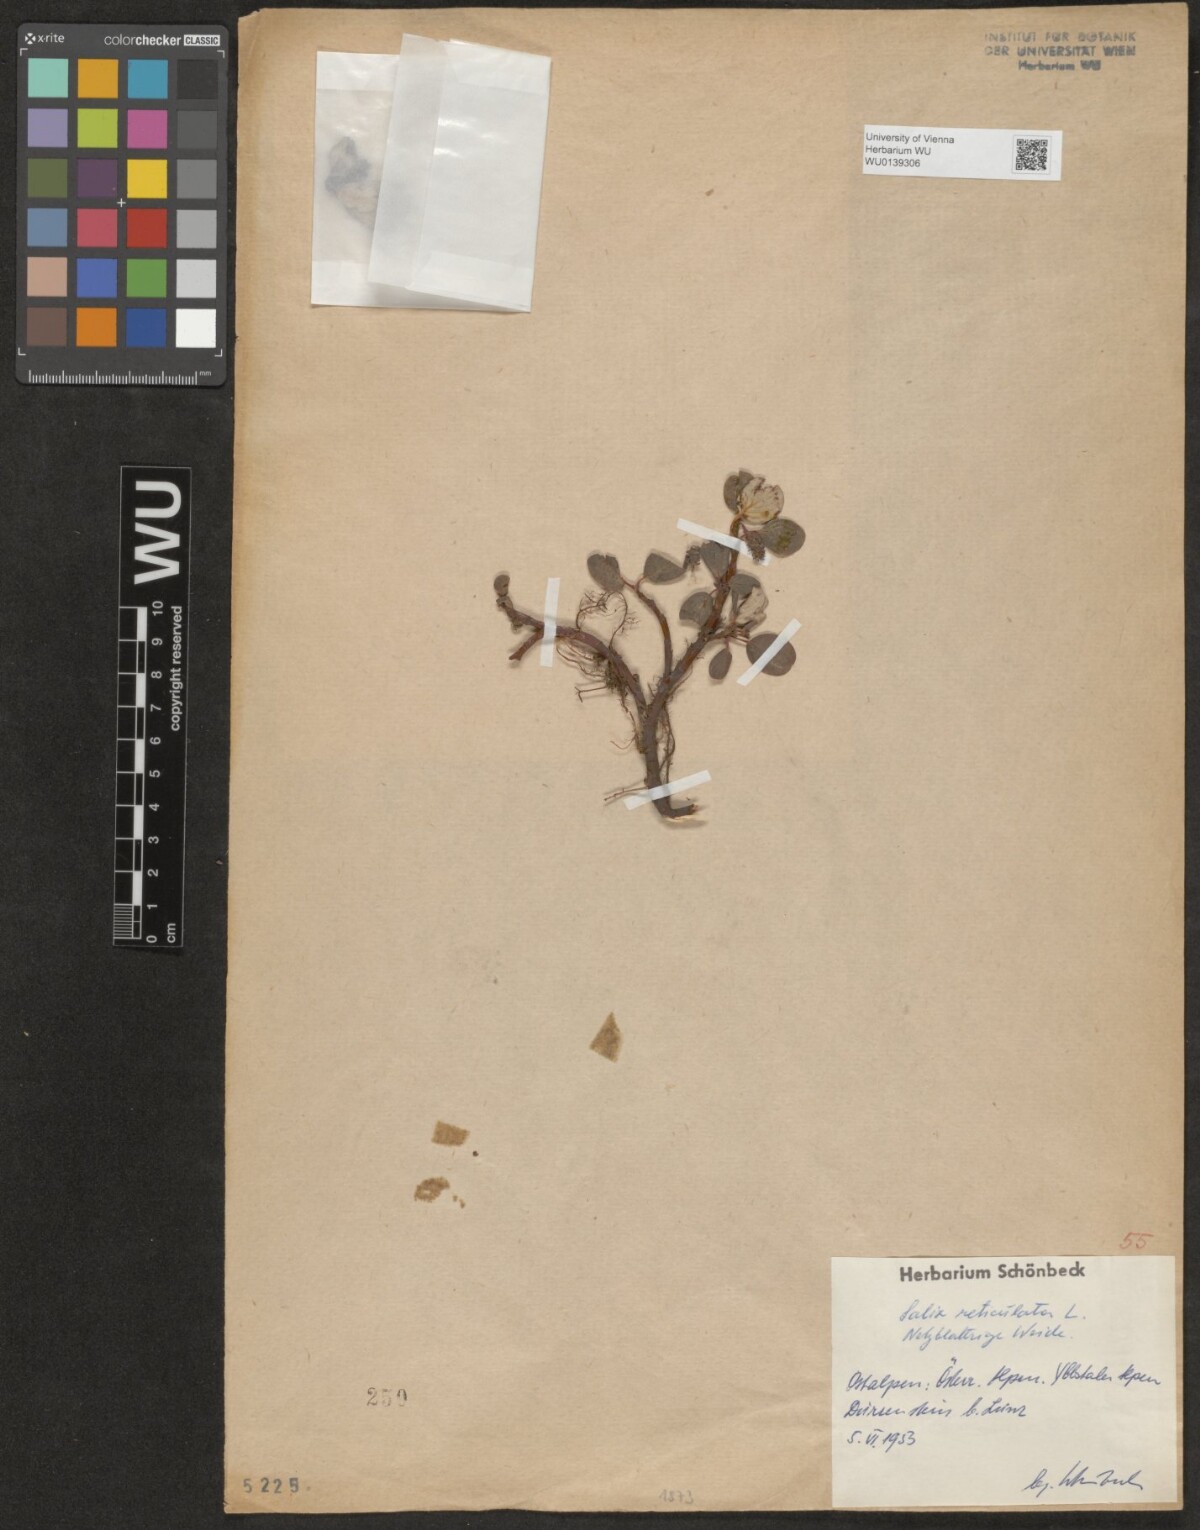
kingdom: Plantae
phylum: Tracheophyta
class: Magnoliopsida
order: Malpighiales
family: Salicaceae
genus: Salix
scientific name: Salix reticulata
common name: Net-leaved willow
